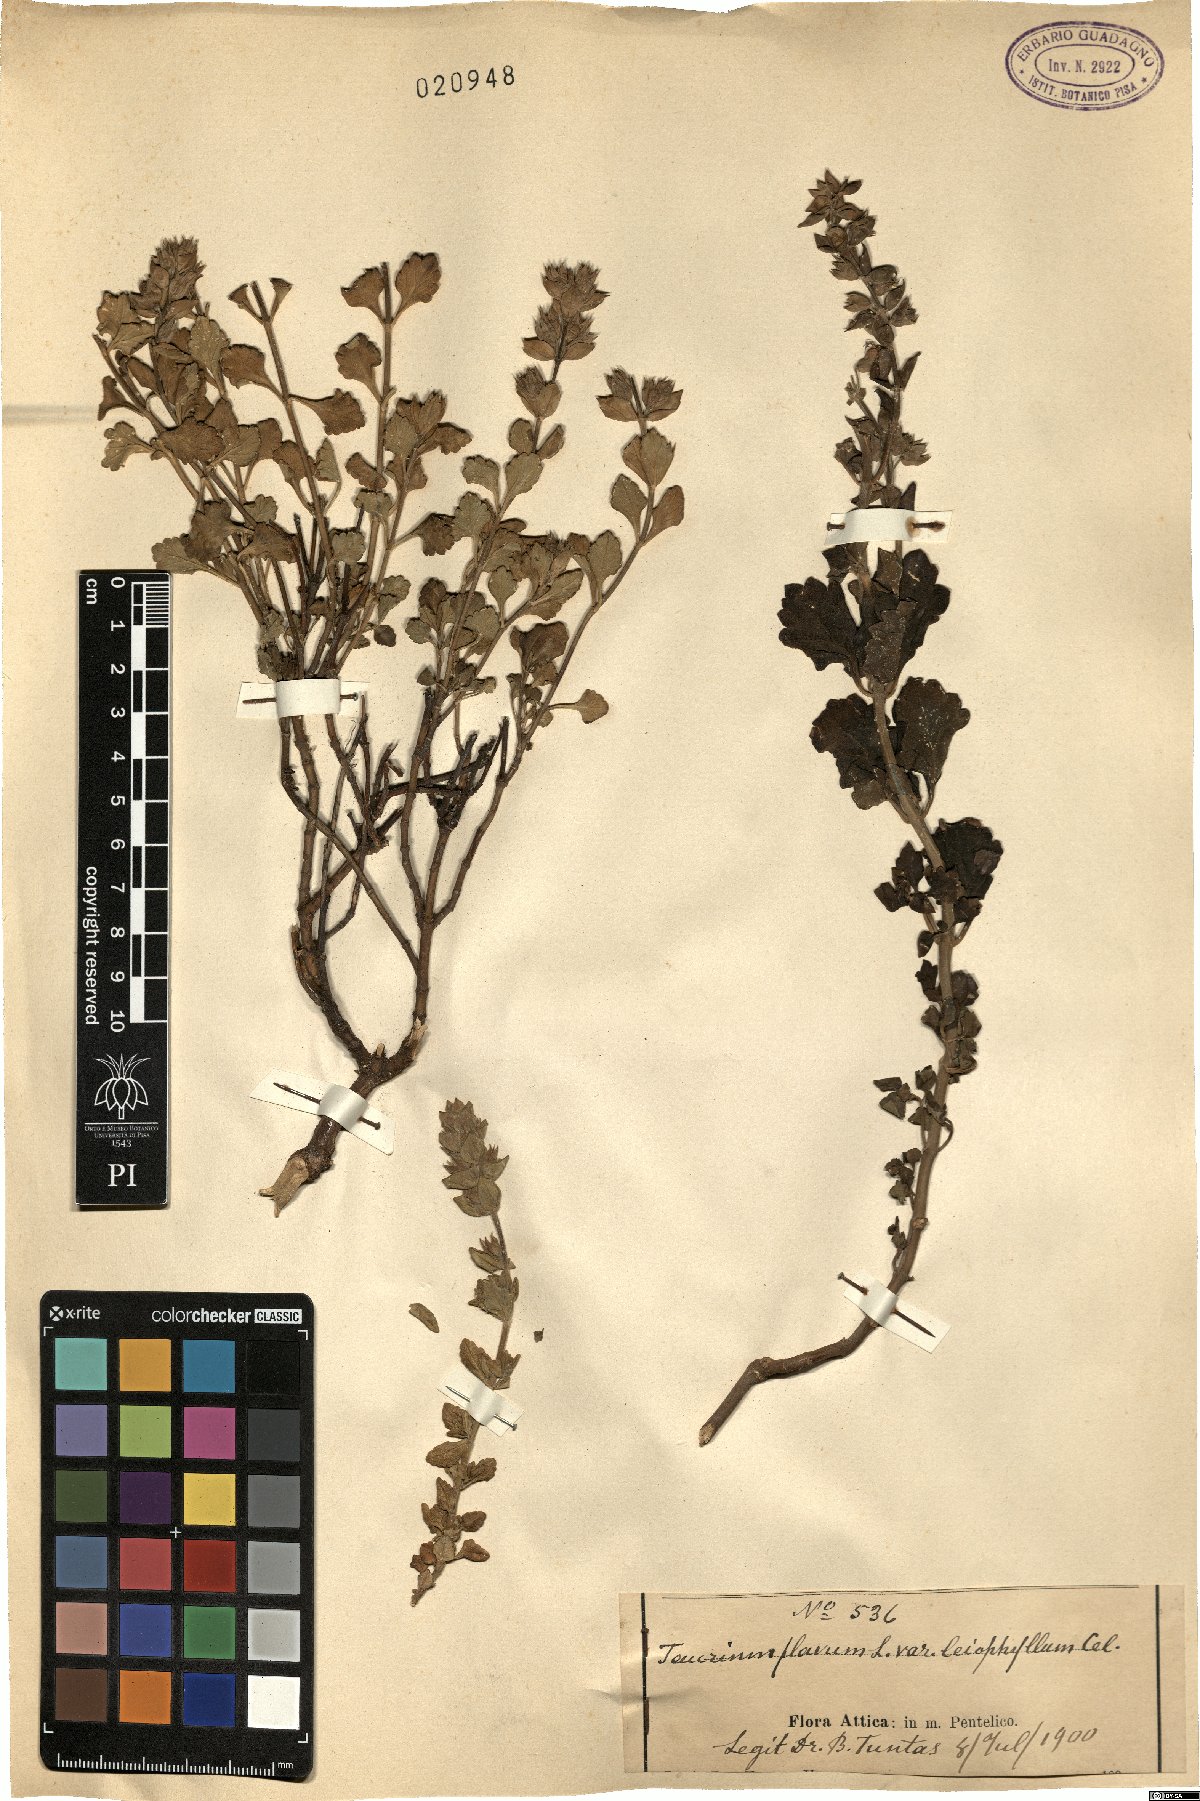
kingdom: Plantae
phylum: Tracheophyta
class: Magnoliopsida
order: Lamiales
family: Lamiaceae
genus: Teucrium
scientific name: Teucrium flavum
